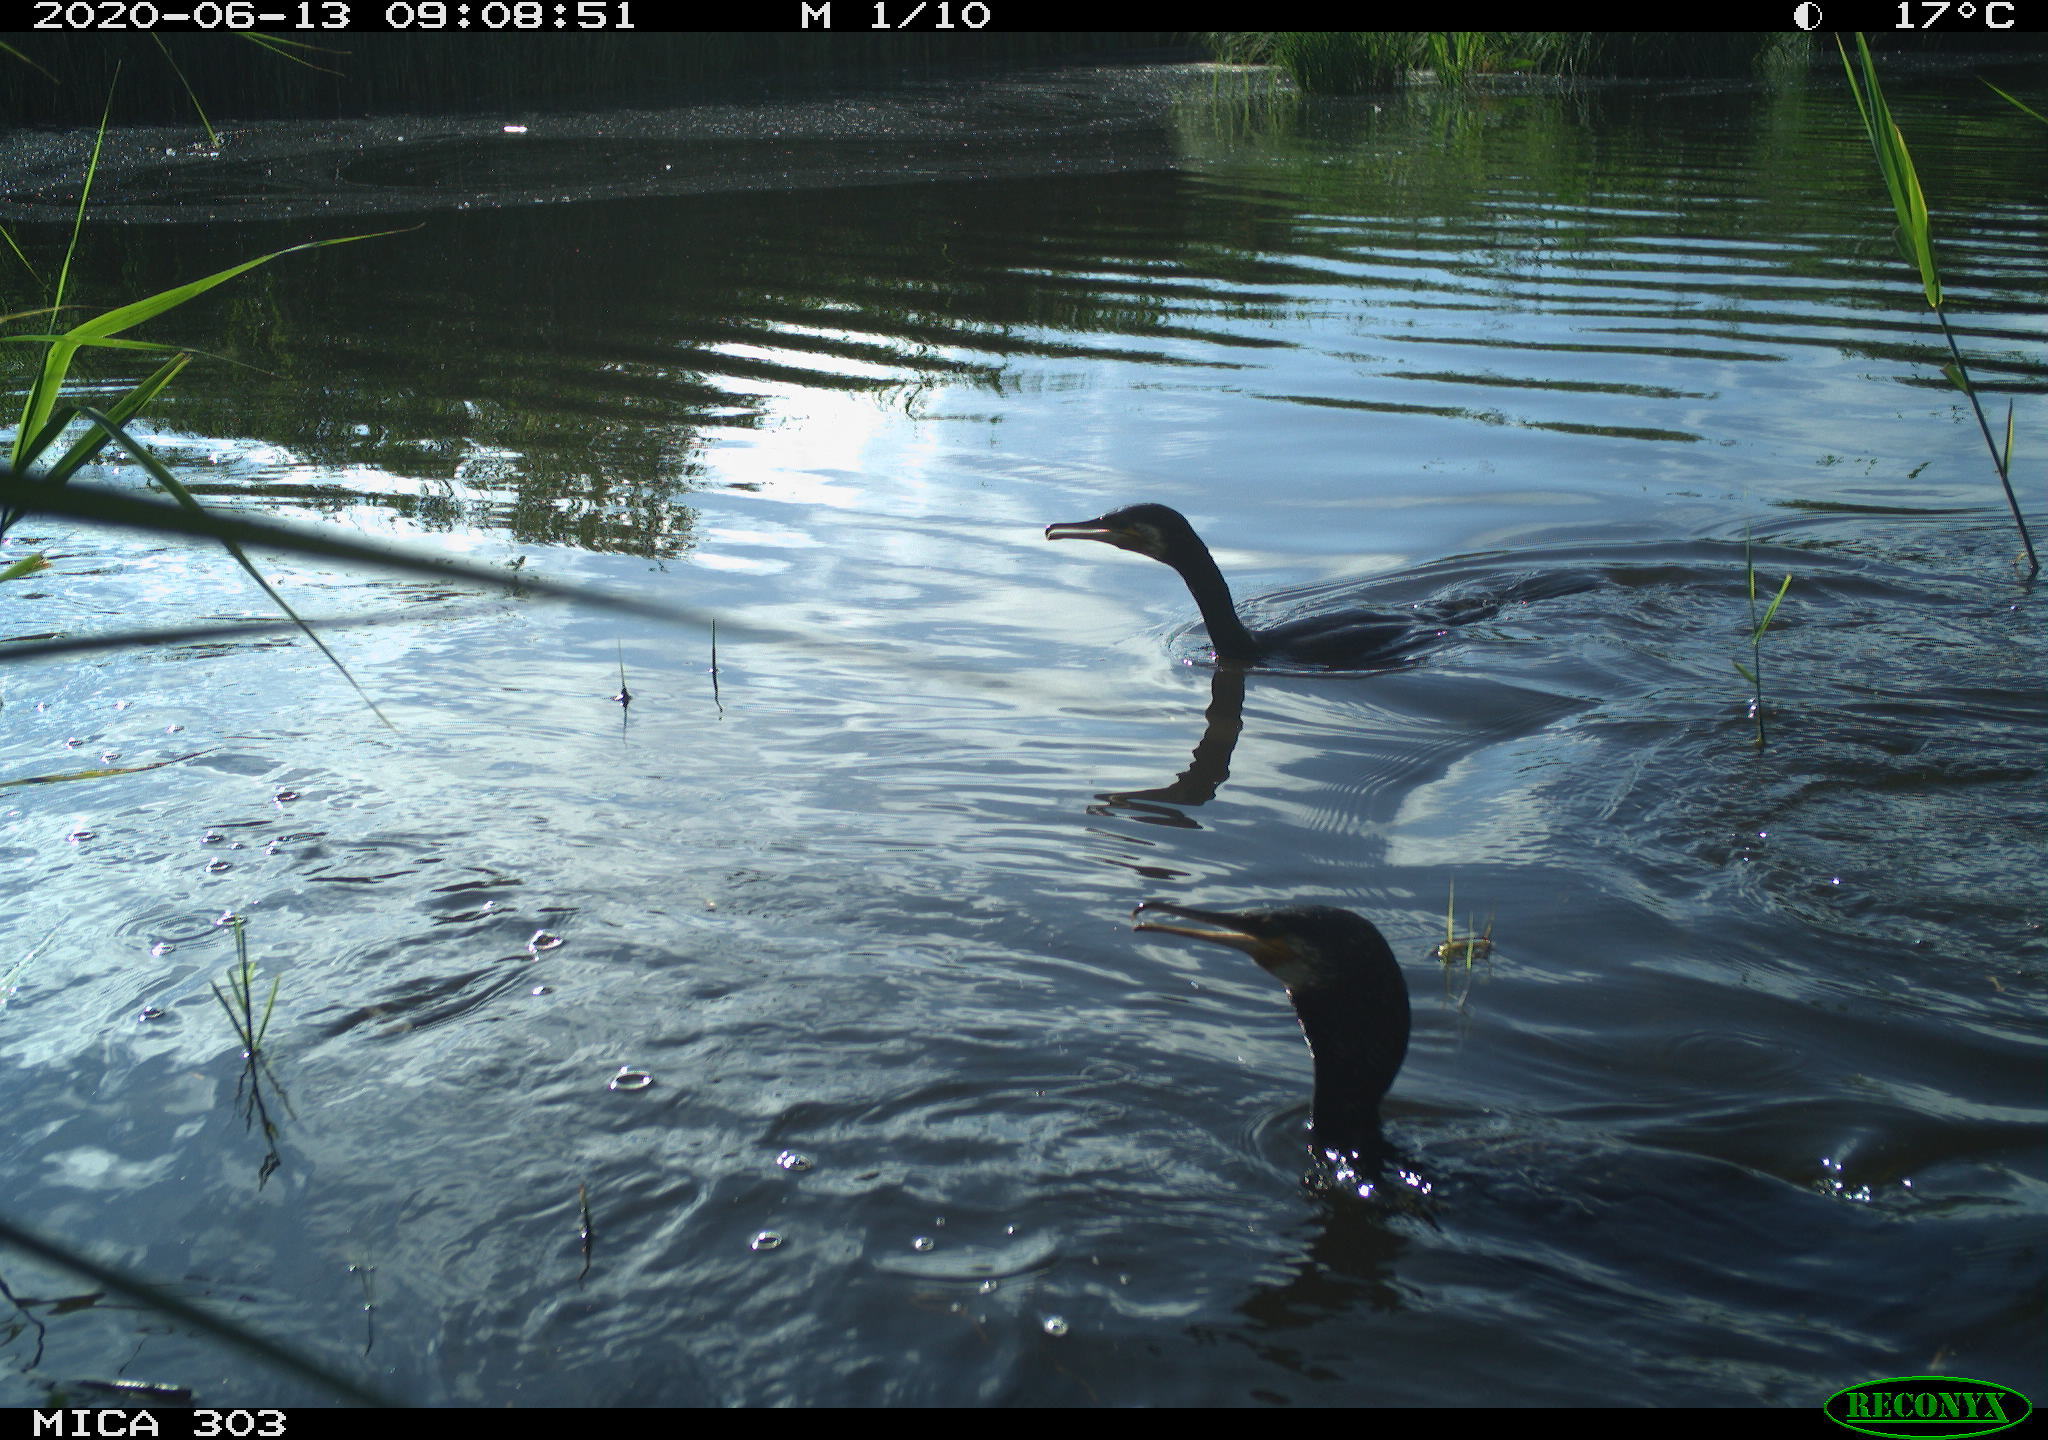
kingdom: Animalia
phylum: Chordata
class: Aves
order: Suliformes
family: Phalacrocoracidae
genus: Phalacrocorax
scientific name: Phalacrocorax carbo
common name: Great cormorant
